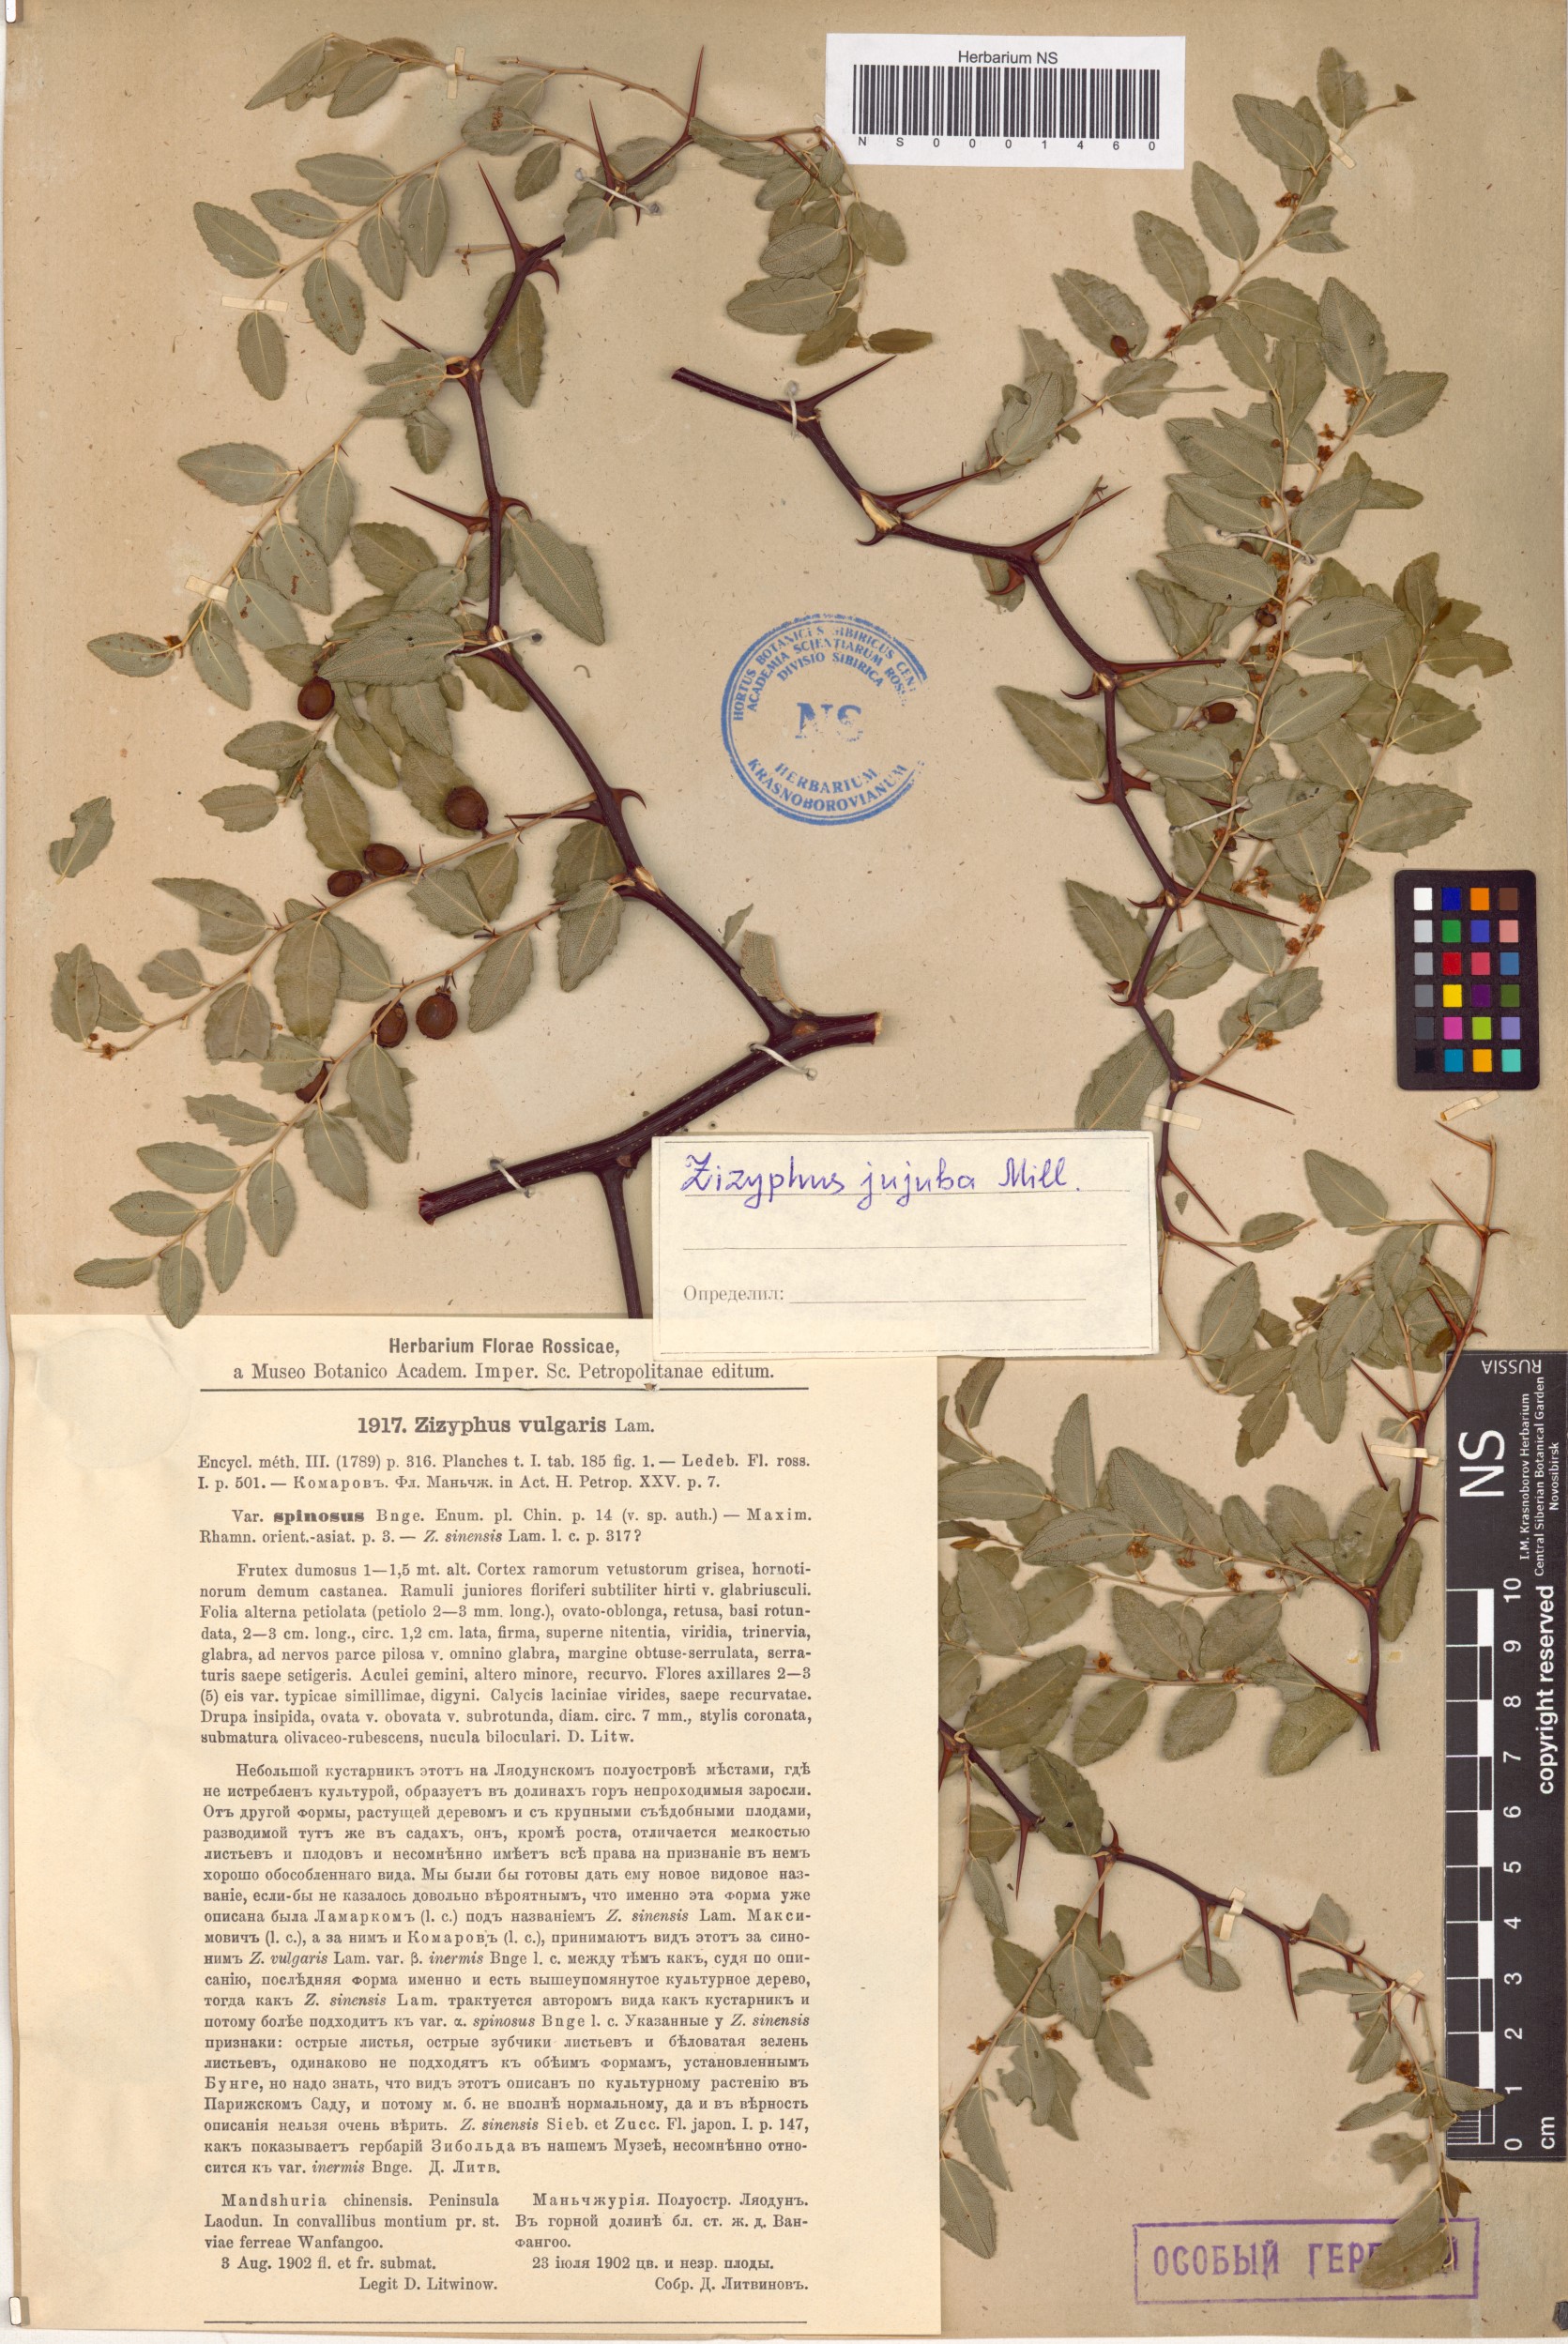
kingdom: Plantae
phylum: Tracheophyta
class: Magnoliopsida
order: Rosales
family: Rhamnaceae
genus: Ziziphus
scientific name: Ziziphus jujuba
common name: Jujube red date
